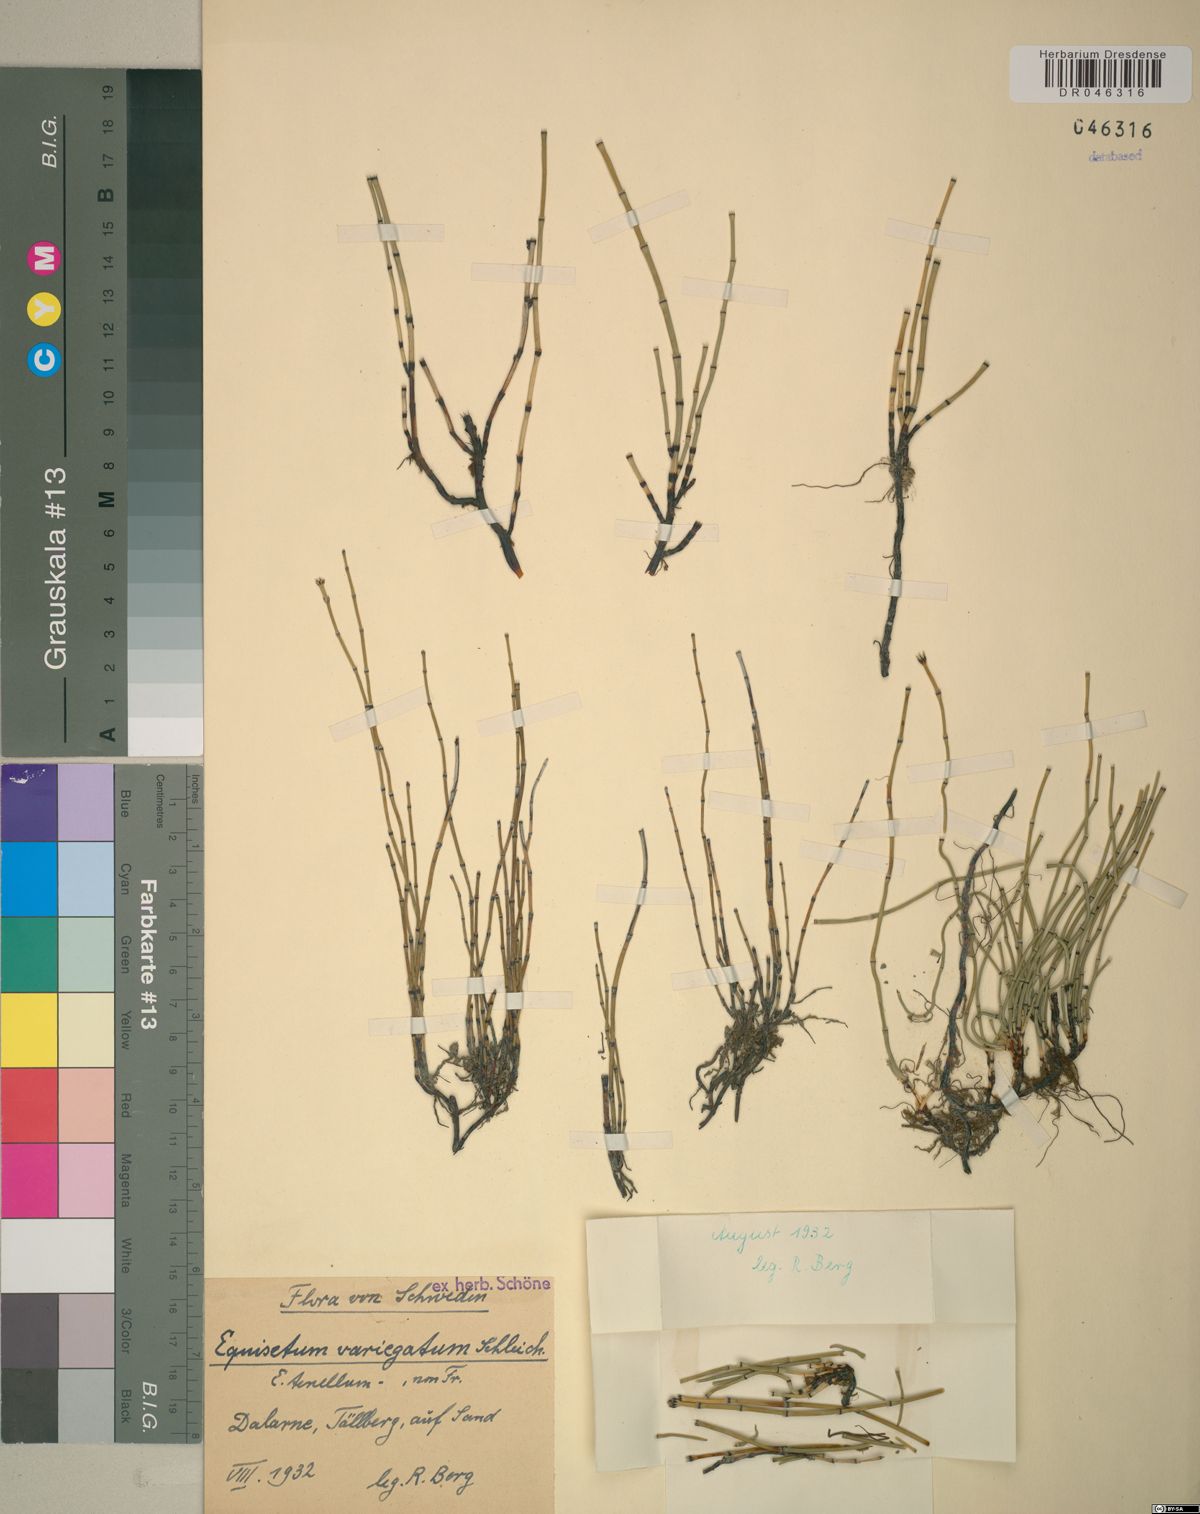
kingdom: Plantae
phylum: Tracheophyta
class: Polypodiopsida
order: Equisetales
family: Equisetaceae
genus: Equisetum
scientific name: Equisetum variegatum
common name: Variegated horsetail
